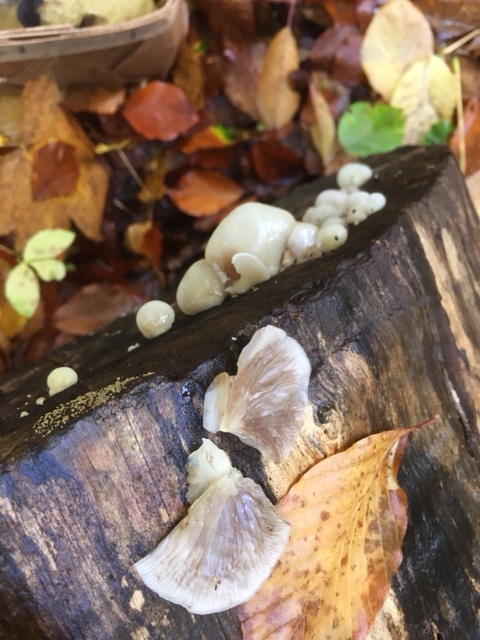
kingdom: Fungi
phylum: Basidiomycota
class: Agaricomycetes
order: Agaricales
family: Crepidotaceae
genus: Crepidotus
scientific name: Crepidotus mollis
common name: blød muslingesvamp
